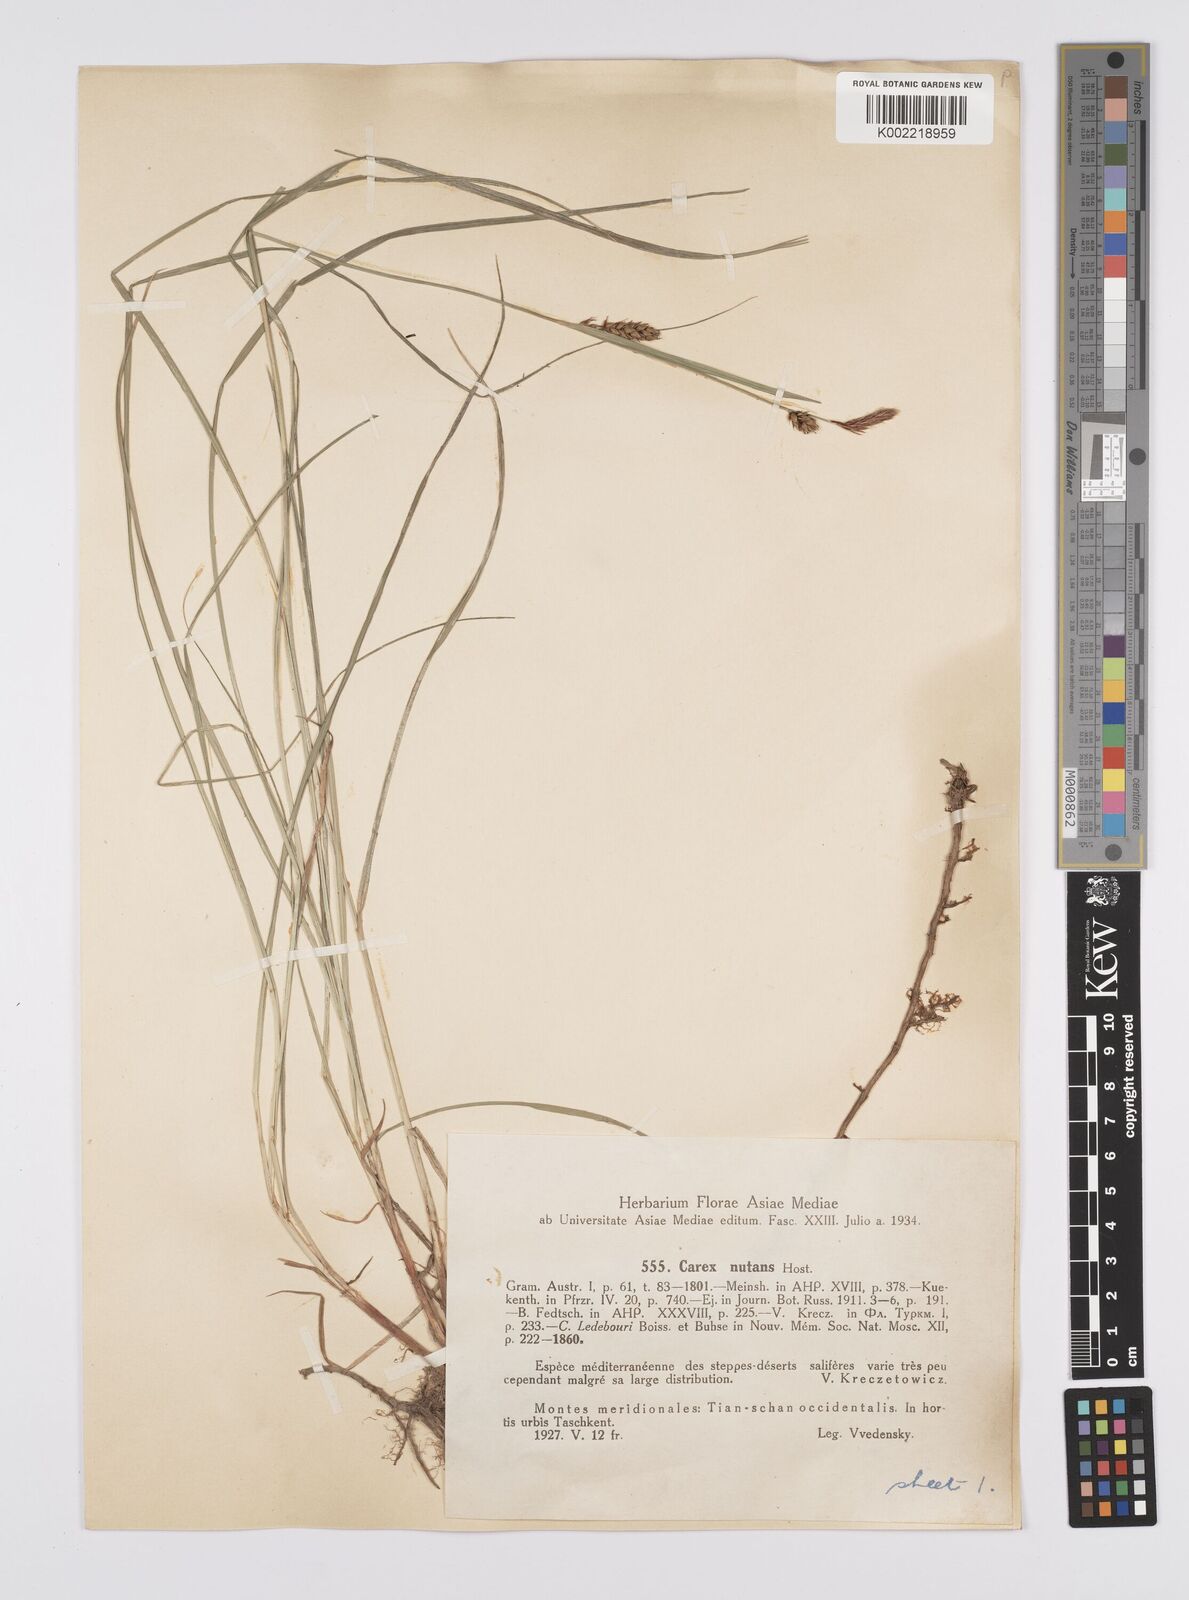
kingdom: Plantae
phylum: Tracheophyta
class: Liliopsida
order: Poales
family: Cyperaceae
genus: Carex
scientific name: Carex melanostachya
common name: Black-spiked sedge
